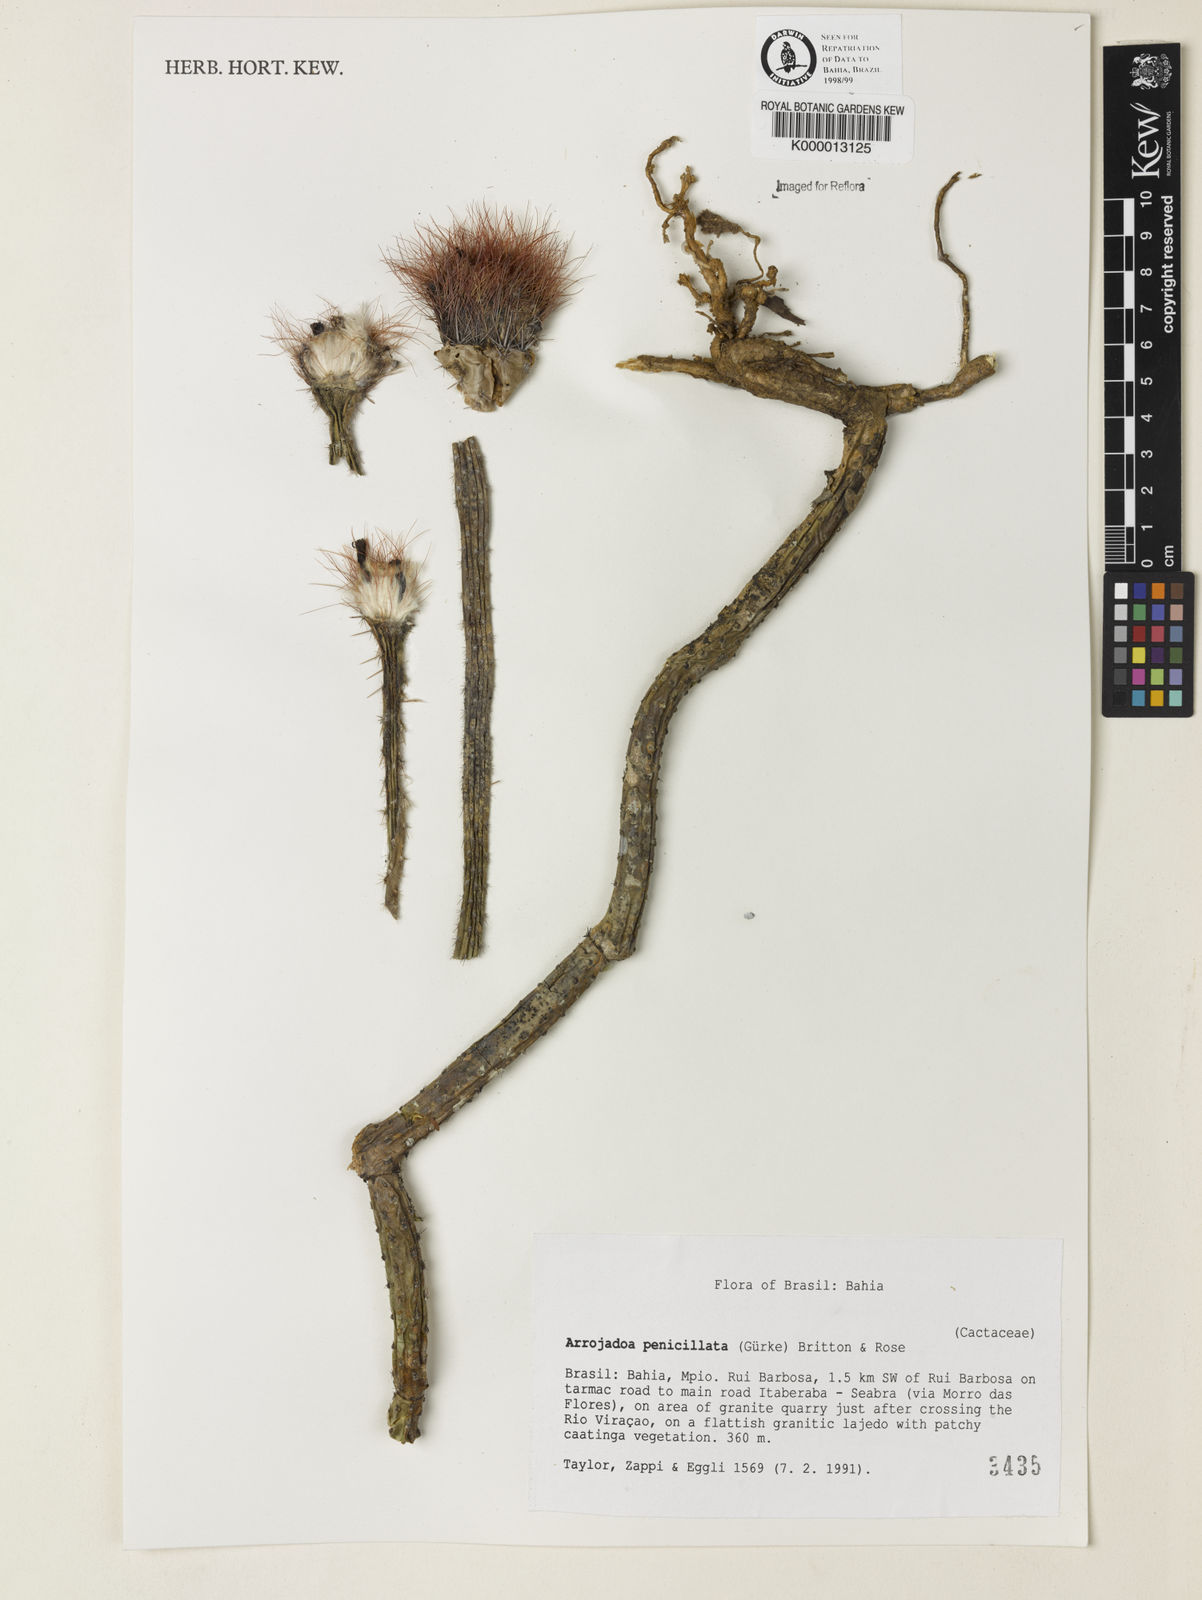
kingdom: Plantae
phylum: Tracheophyta
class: Magnoliopsida
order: Caryophyllales
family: Cactaceae
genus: Arrojadoa
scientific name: Arrojadoa penicillata
